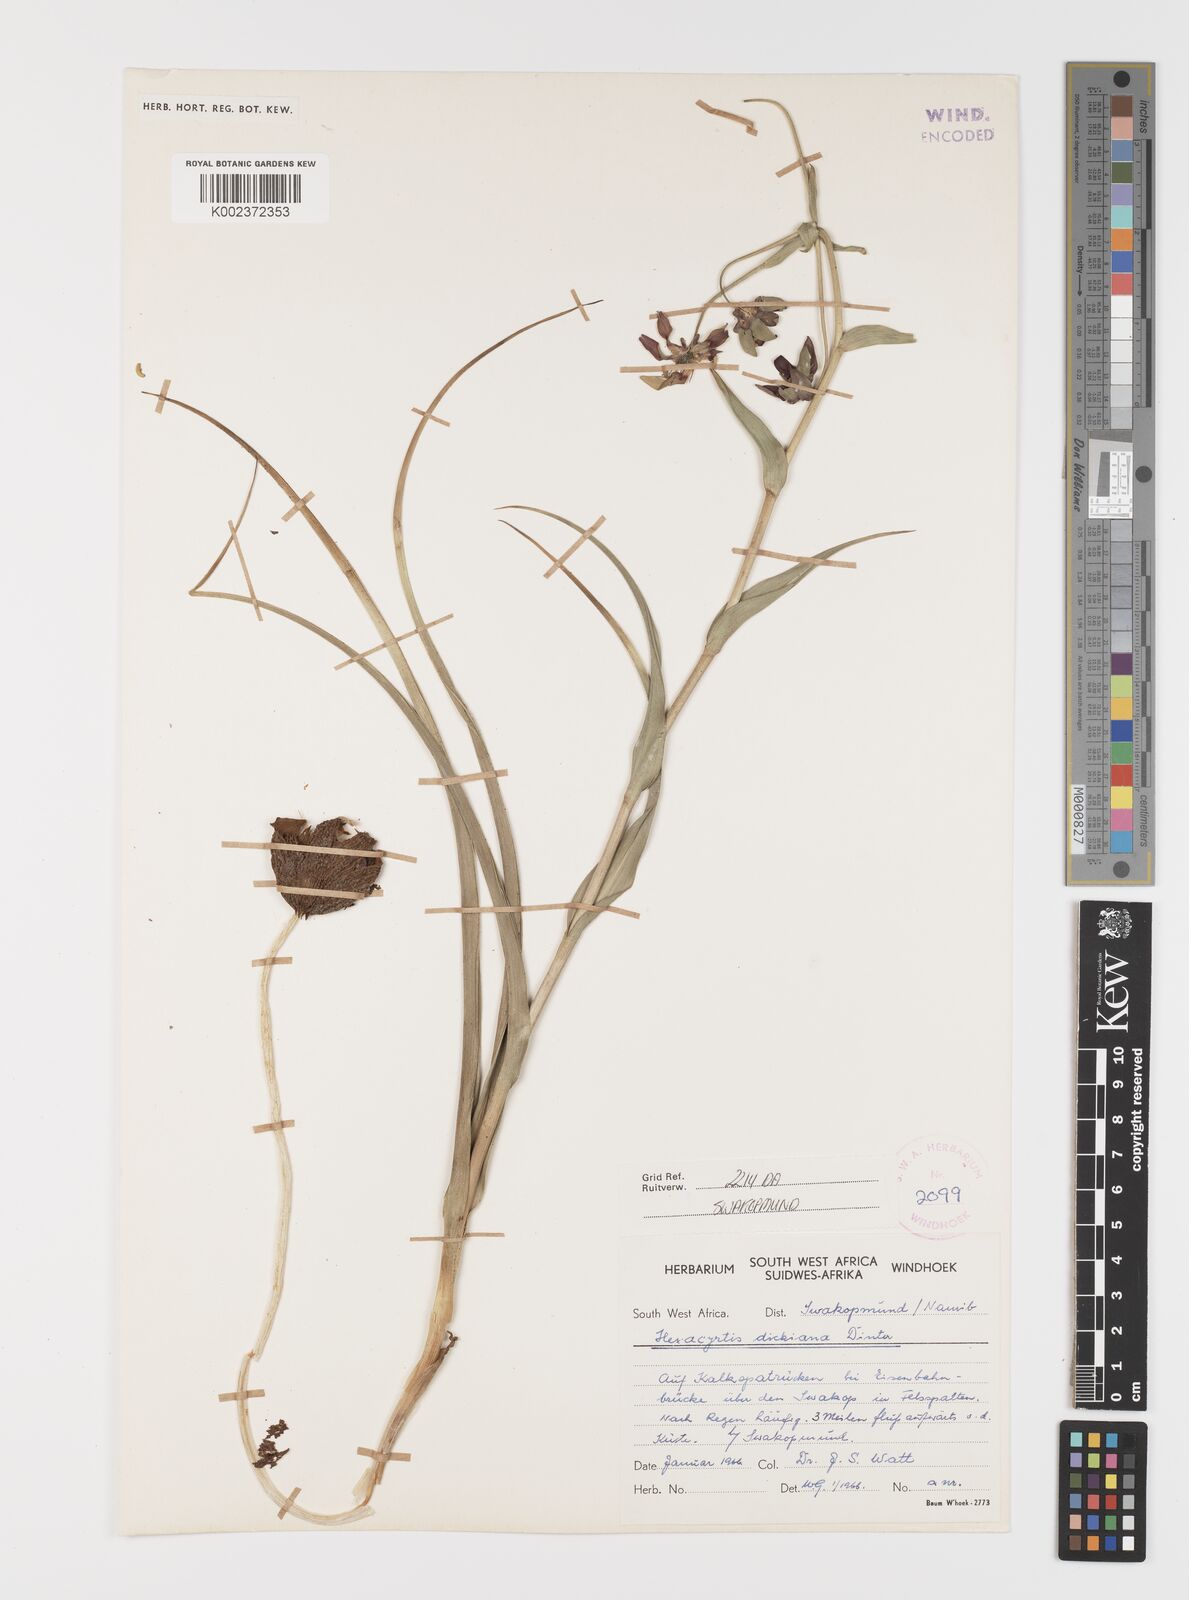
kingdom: Plantae
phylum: Tracheophyta
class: Liliopsida
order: Liliales
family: Colchicaceae
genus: Hexacyrtis
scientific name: Hexacyrtis dickiana
